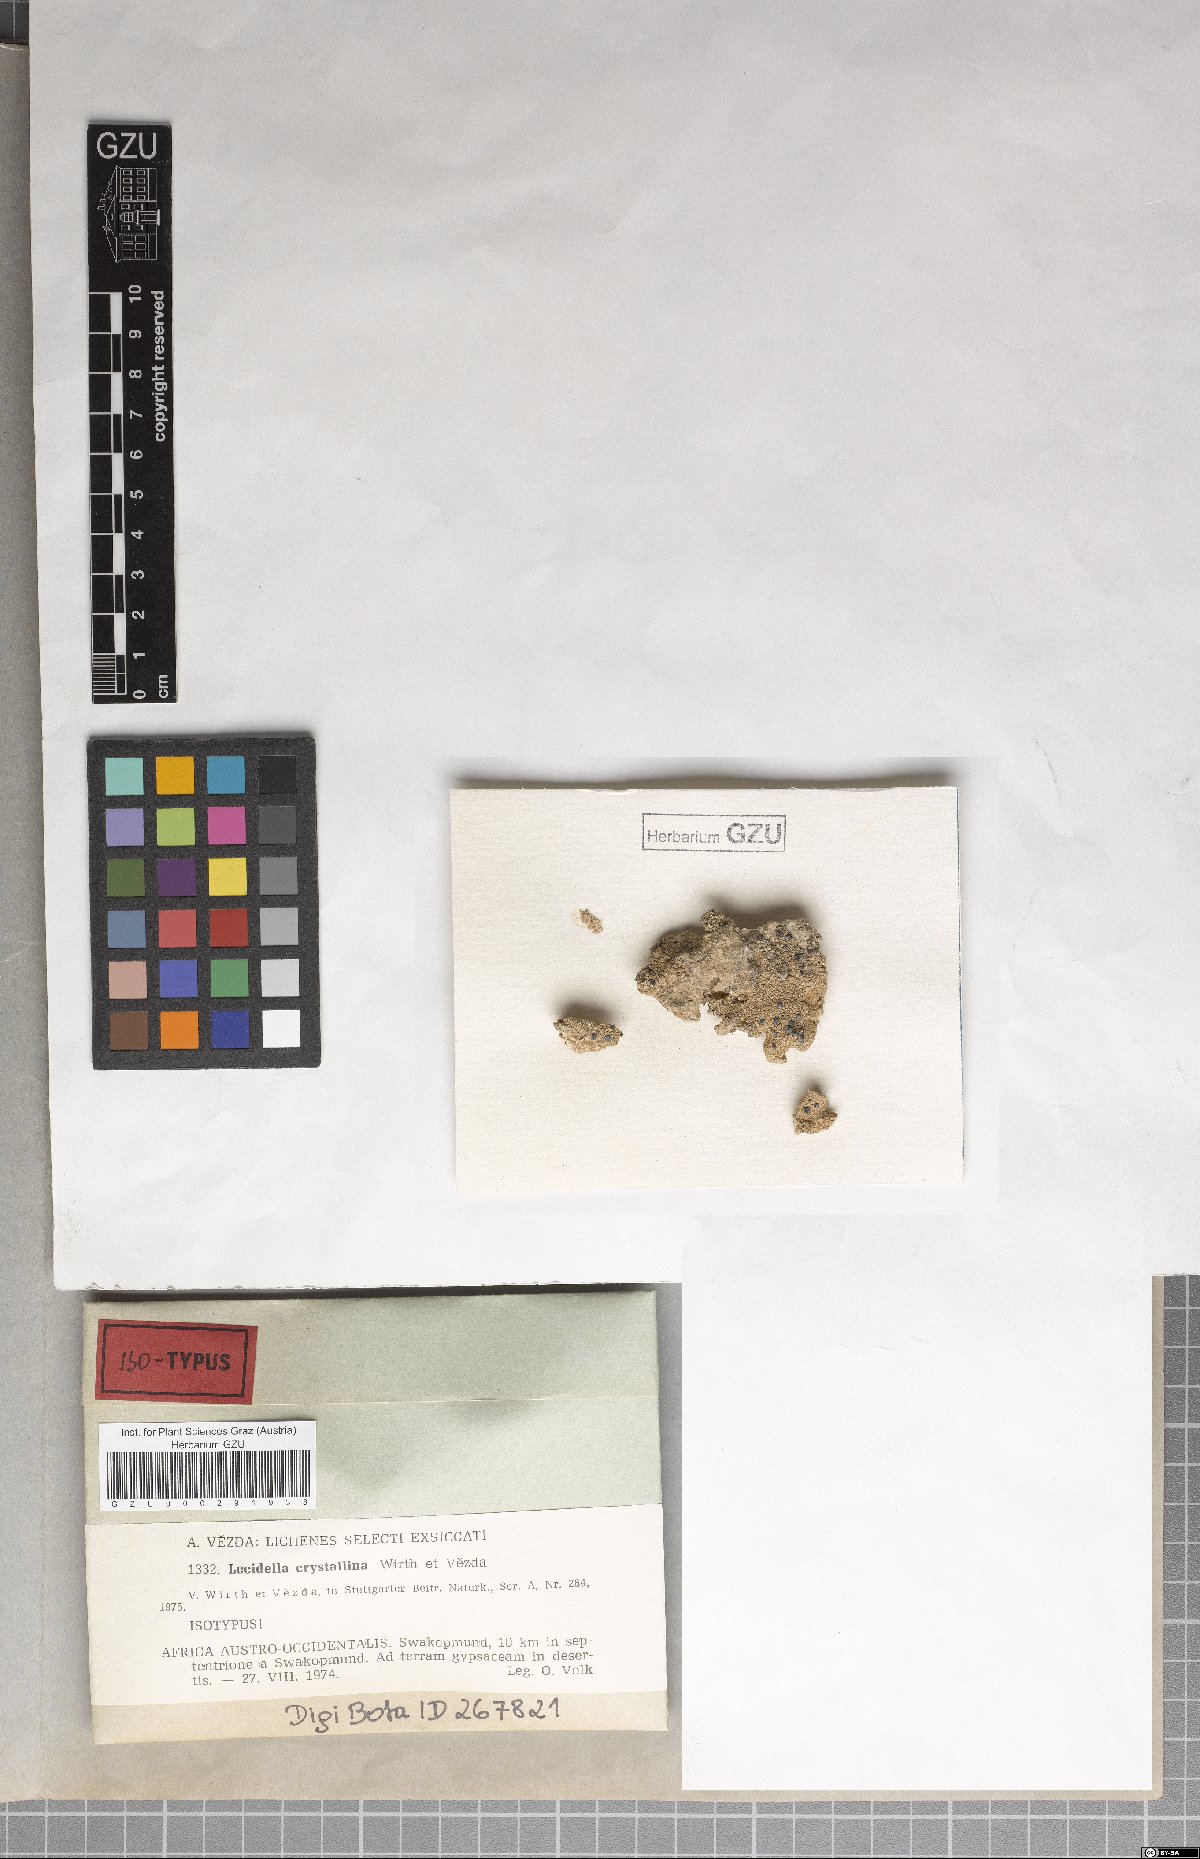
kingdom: Fungi
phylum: Ascomycota
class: Lecanoromycetes
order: Lecanorales
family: Lecanoraceae
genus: Lecidella
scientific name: Lecidella
